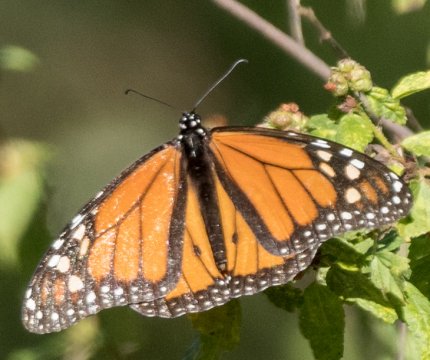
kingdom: Animalia
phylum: Arthropoda
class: Insecta
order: Lepidoptera
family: Nymphalidae
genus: Danaus
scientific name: Danaus plexippus
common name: Monarch
